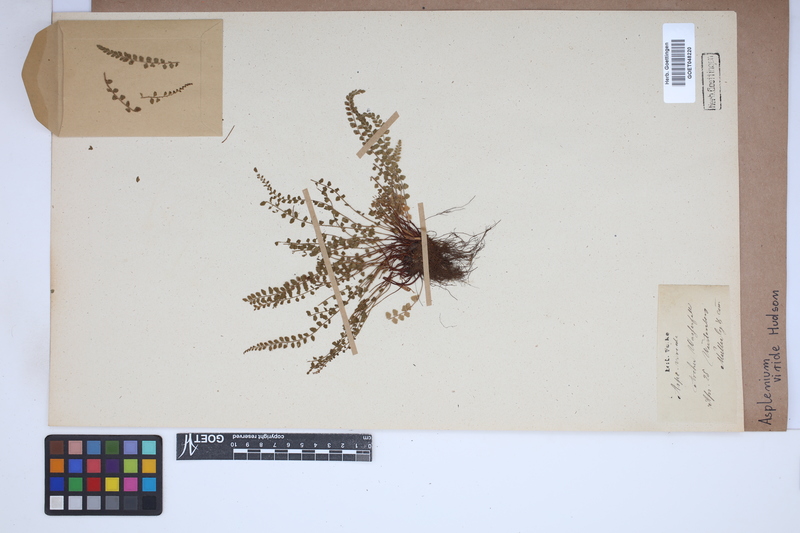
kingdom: Plantae
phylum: Tracheophyta
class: Polypodiopsida
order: Polypodiales
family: Aspleniaceae
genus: Asplenium
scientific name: Asplenium viride
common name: Green spleenwort
